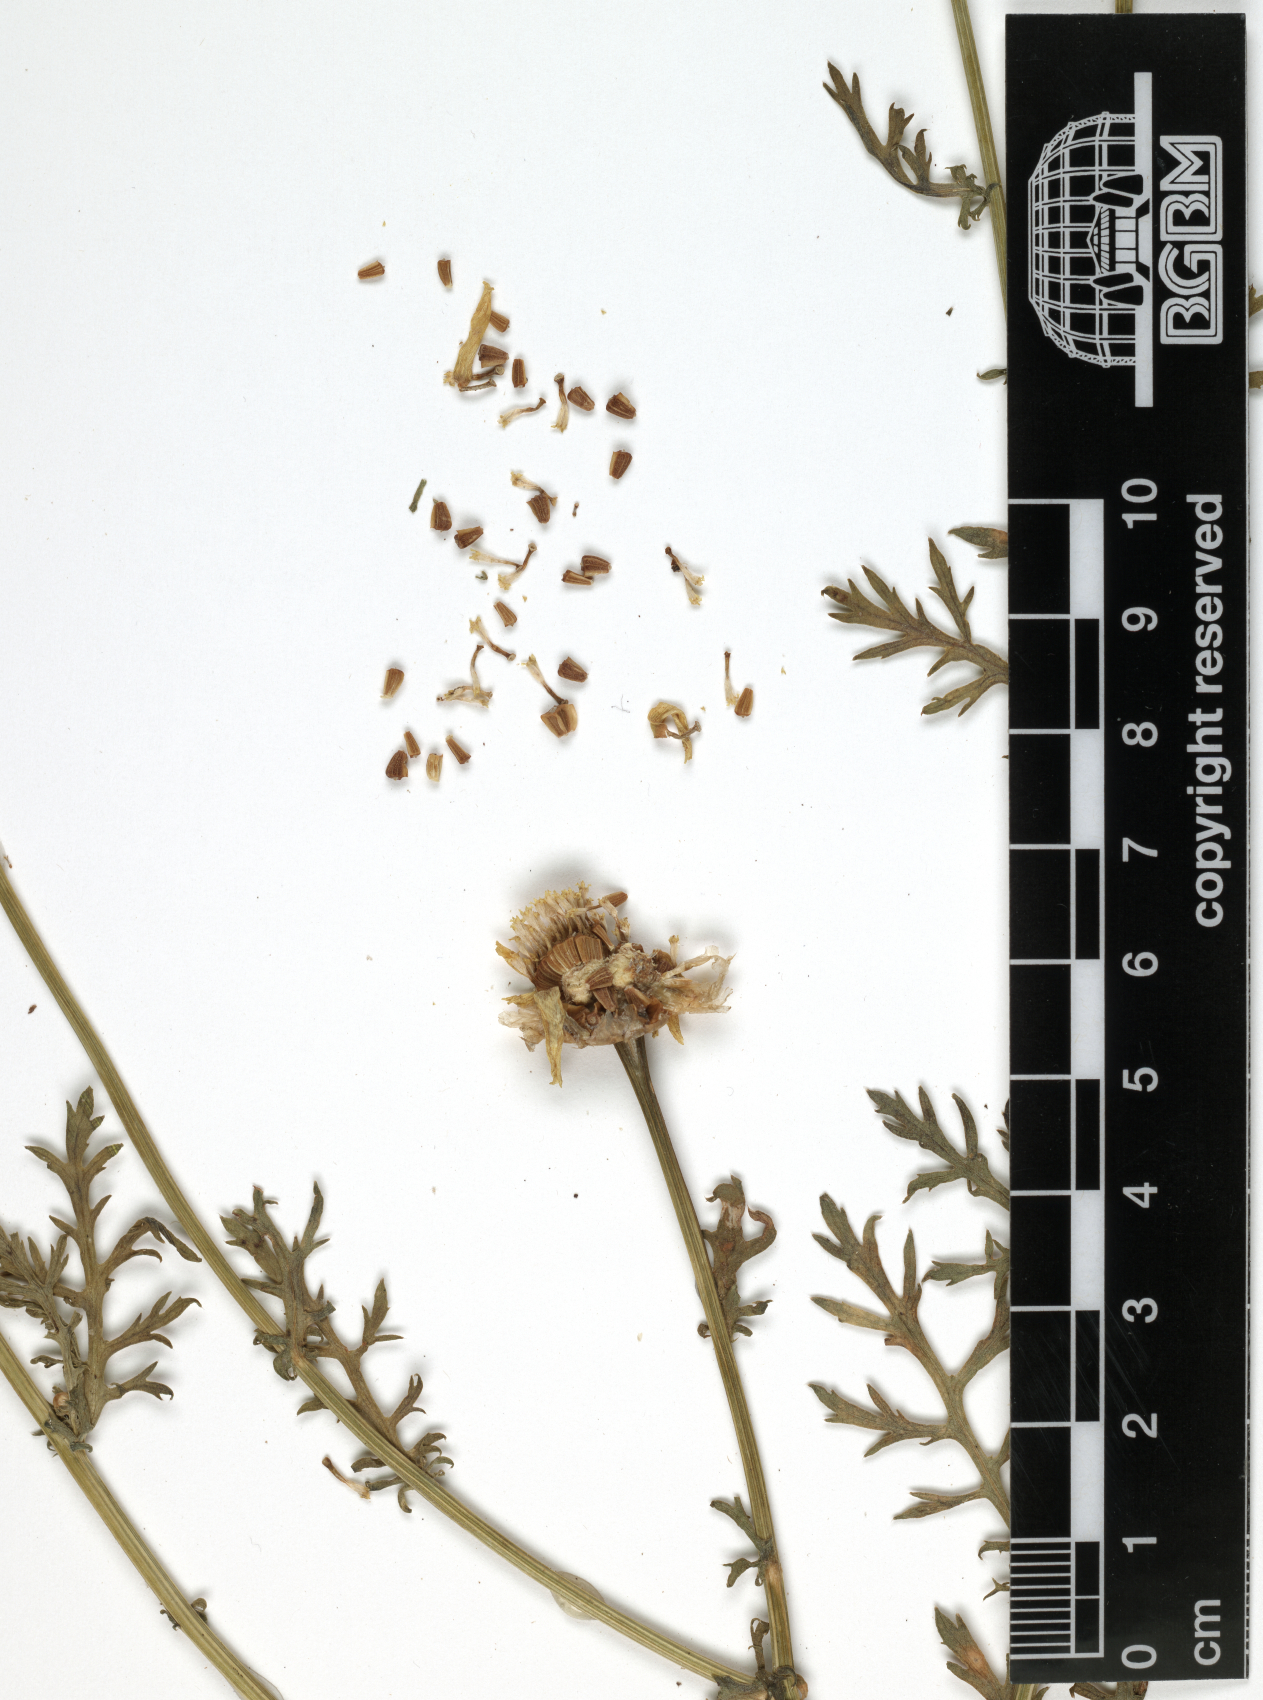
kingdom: Plantae
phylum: Tracheophyta
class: Magnoliopsida
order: Asterales
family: Asteraceae
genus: Glebionis
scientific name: Glebionis coronaria
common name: Crowndaisy
